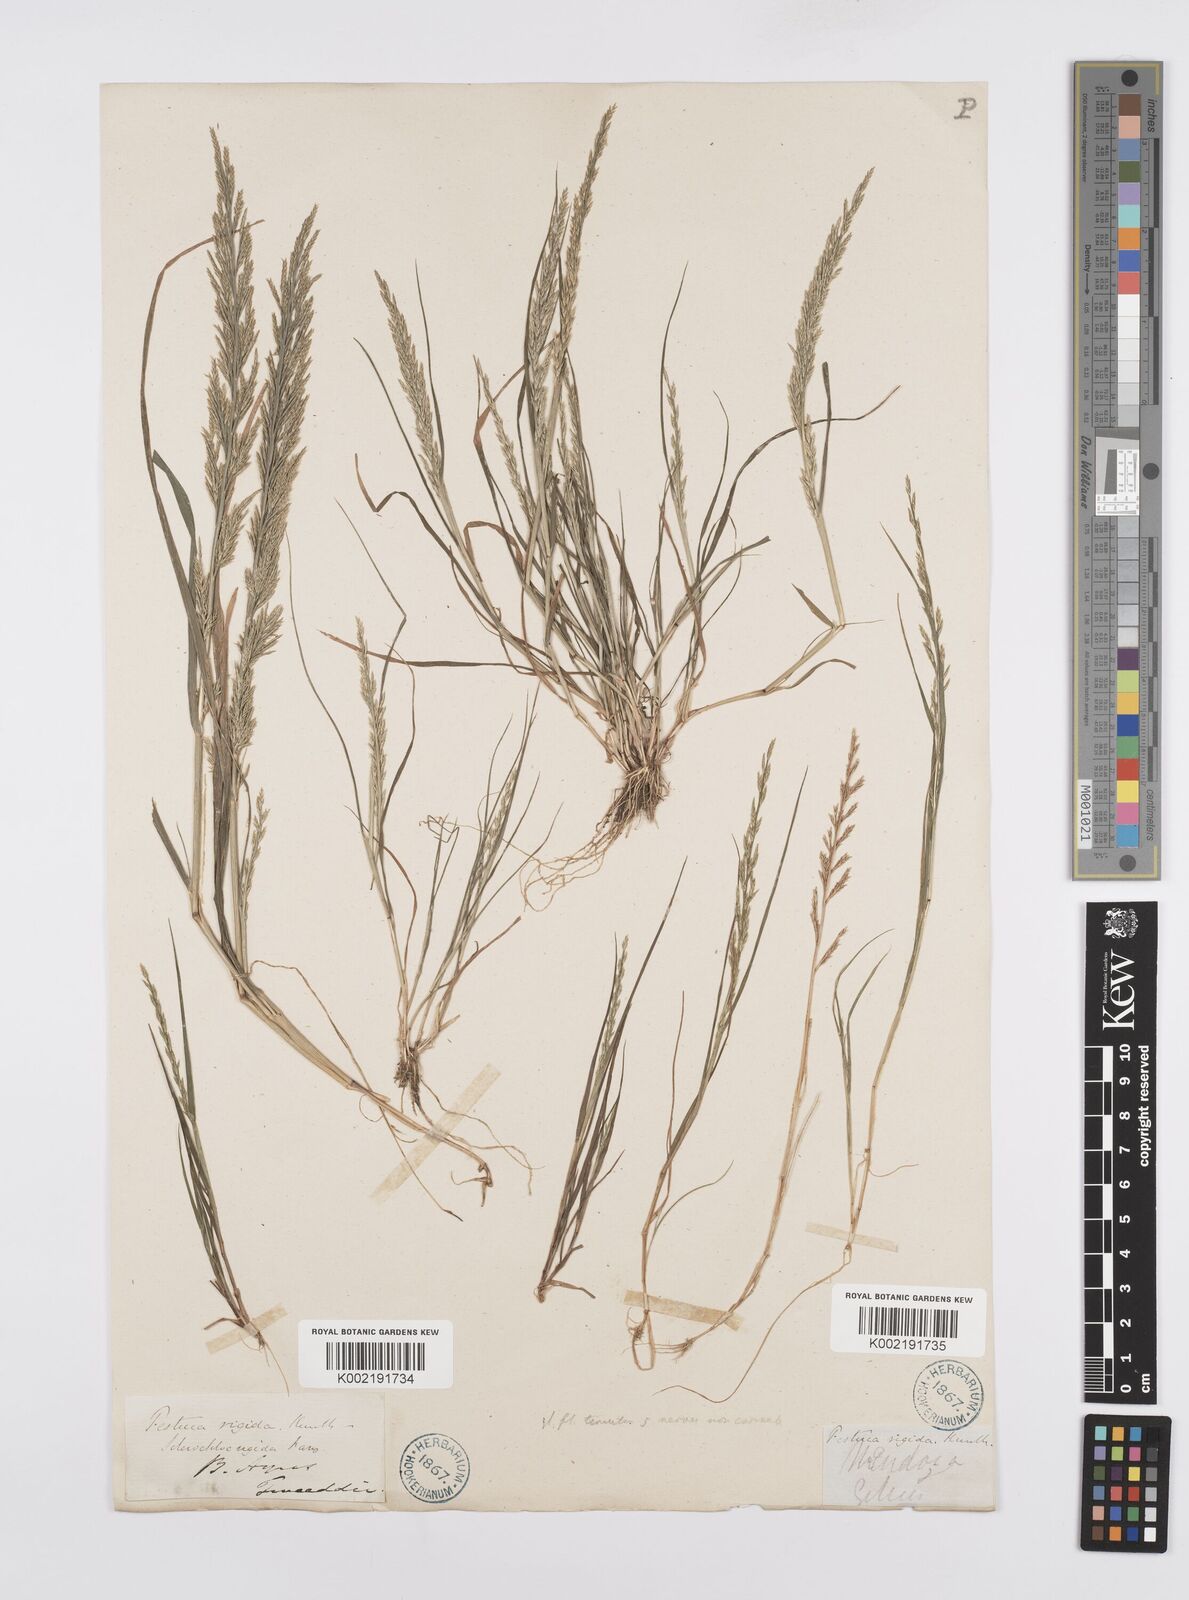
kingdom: Plantae
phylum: Tracheophyta
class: Liliopsida
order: Poales
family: Poaceae
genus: Catapodium
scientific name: Catapodium rigidum
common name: Fern-grass
